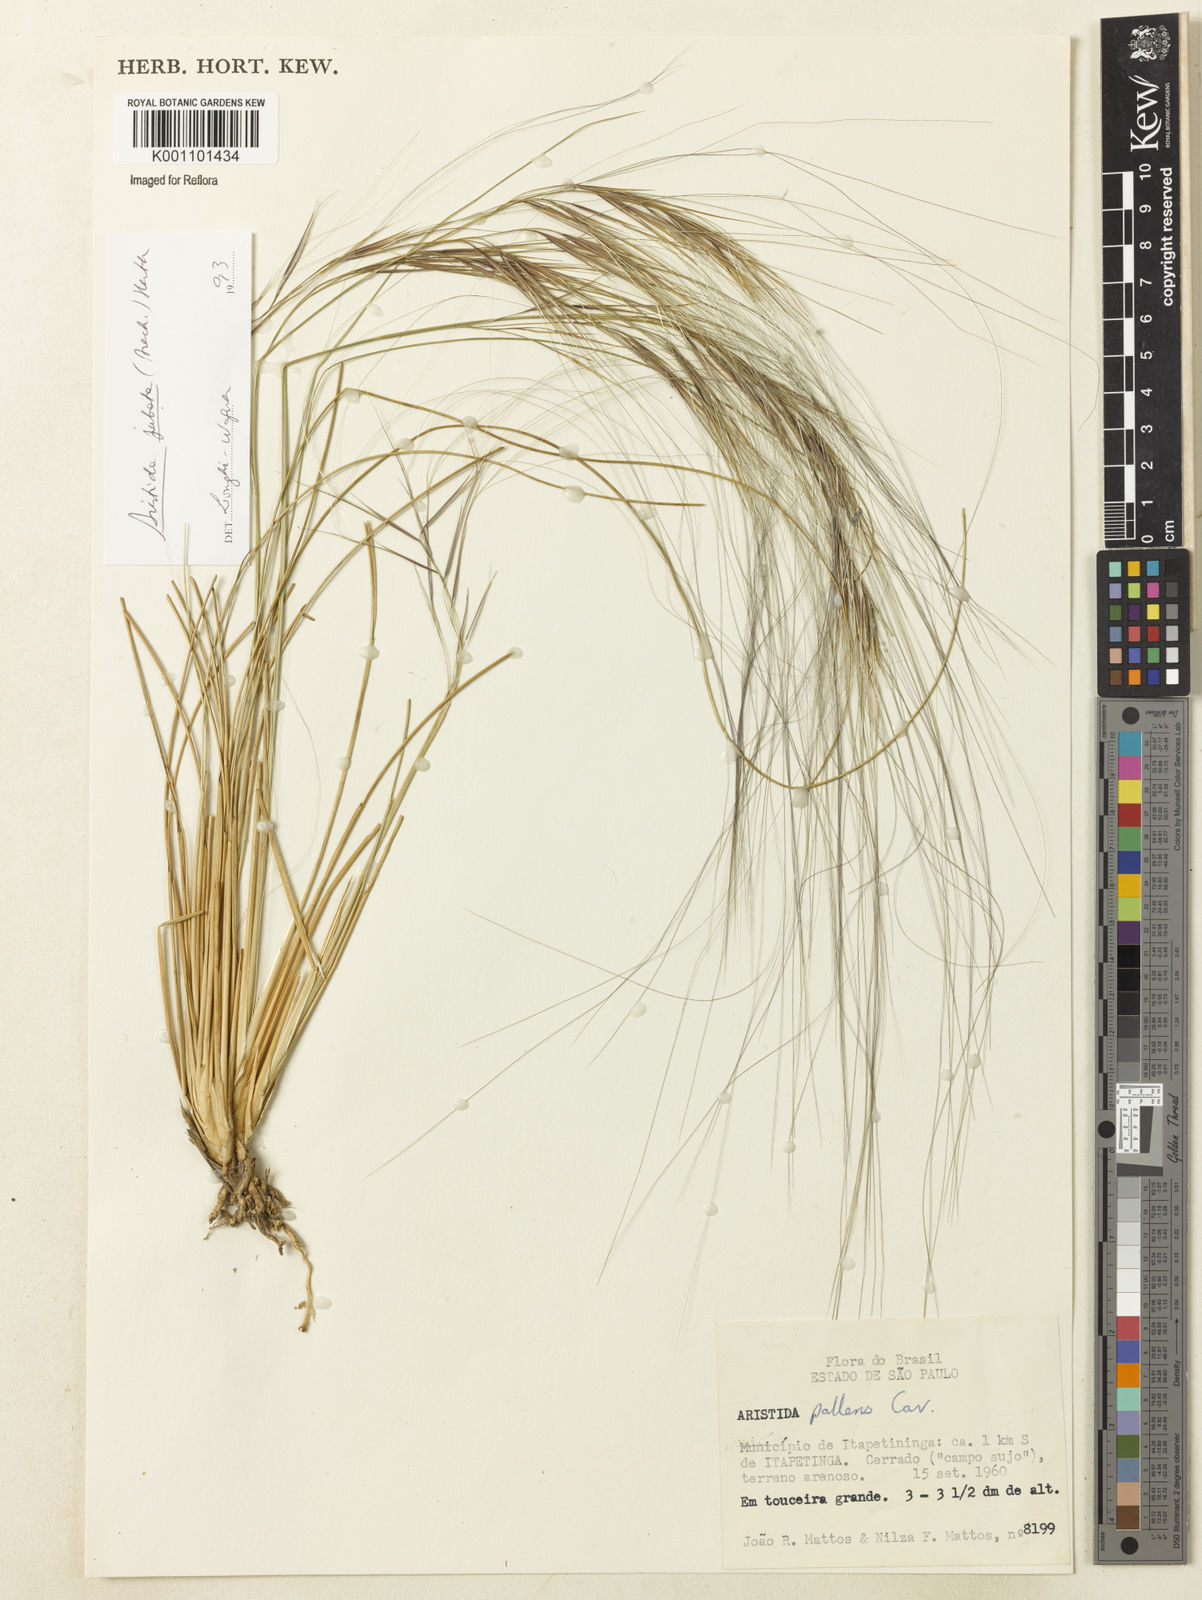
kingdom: Plantae
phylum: Tracheophyta
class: Liliopsida
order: Poales
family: Poaceae
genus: Aristida
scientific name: Aristida jubata
